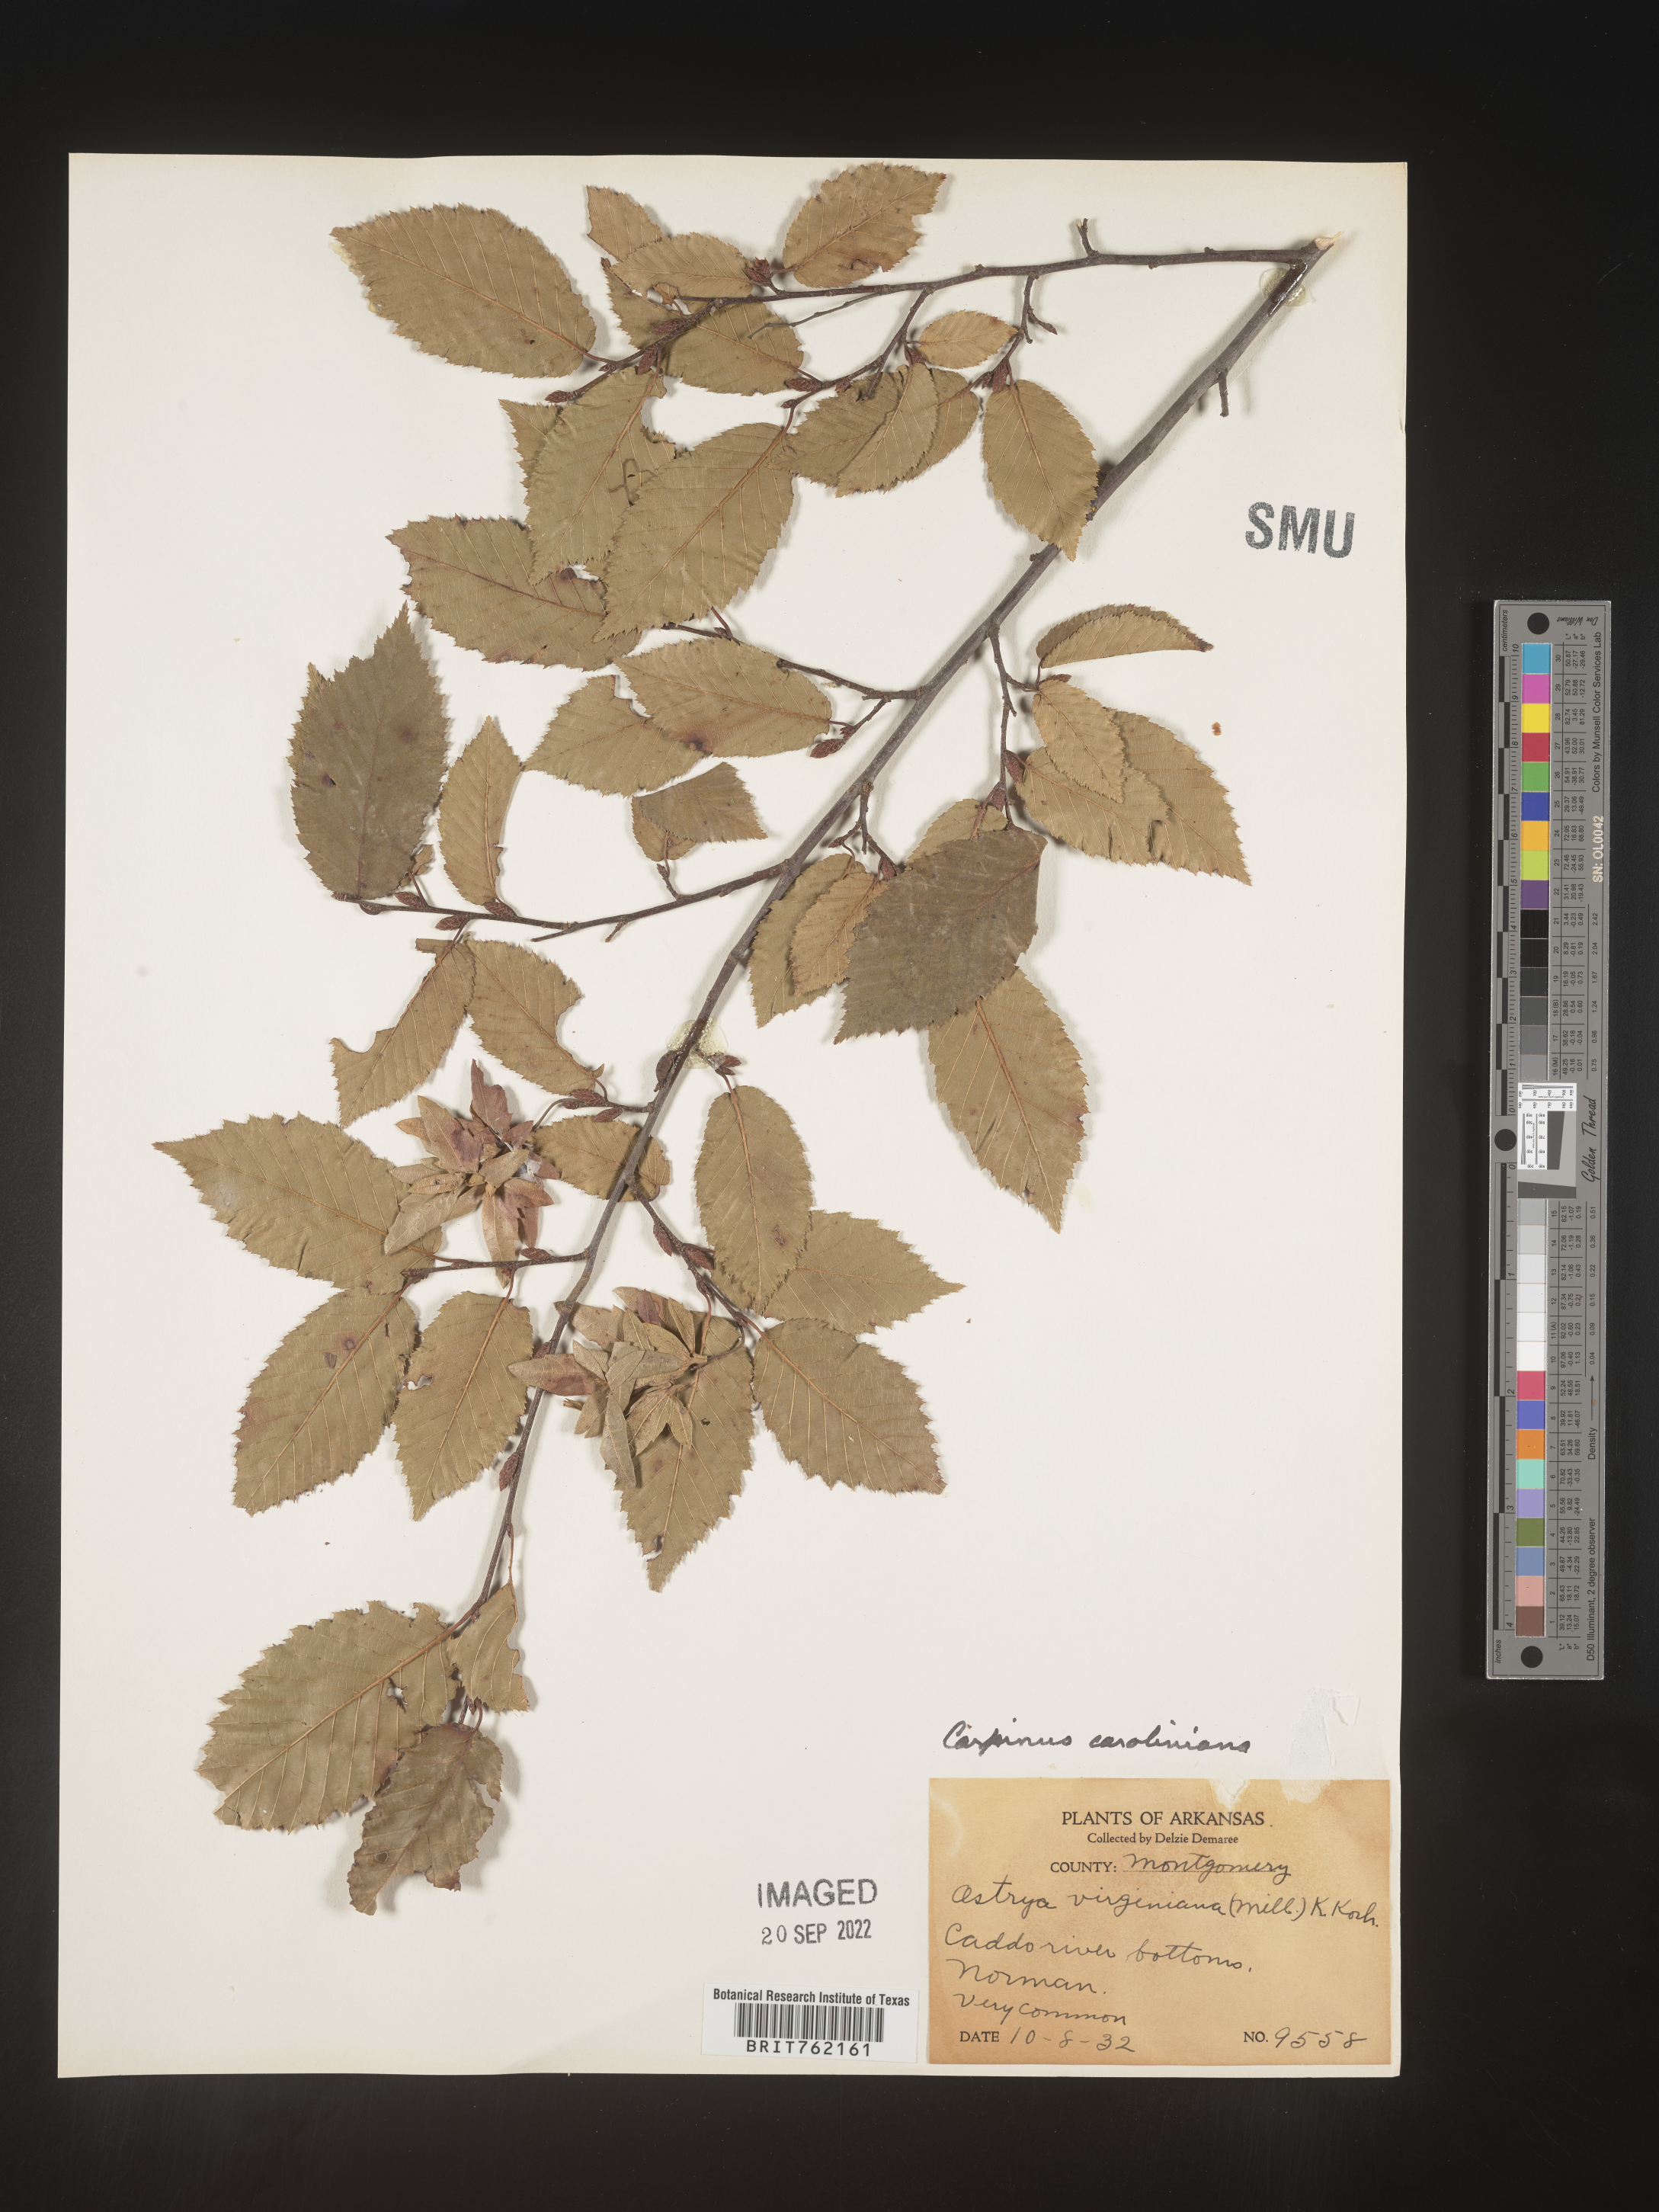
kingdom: Plantae
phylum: Tracheophyta
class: Magnoliopsida
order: Fagales
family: Betulaceae
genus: Carpinus
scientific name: Carpinus caroliniana
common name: American hornbeam
